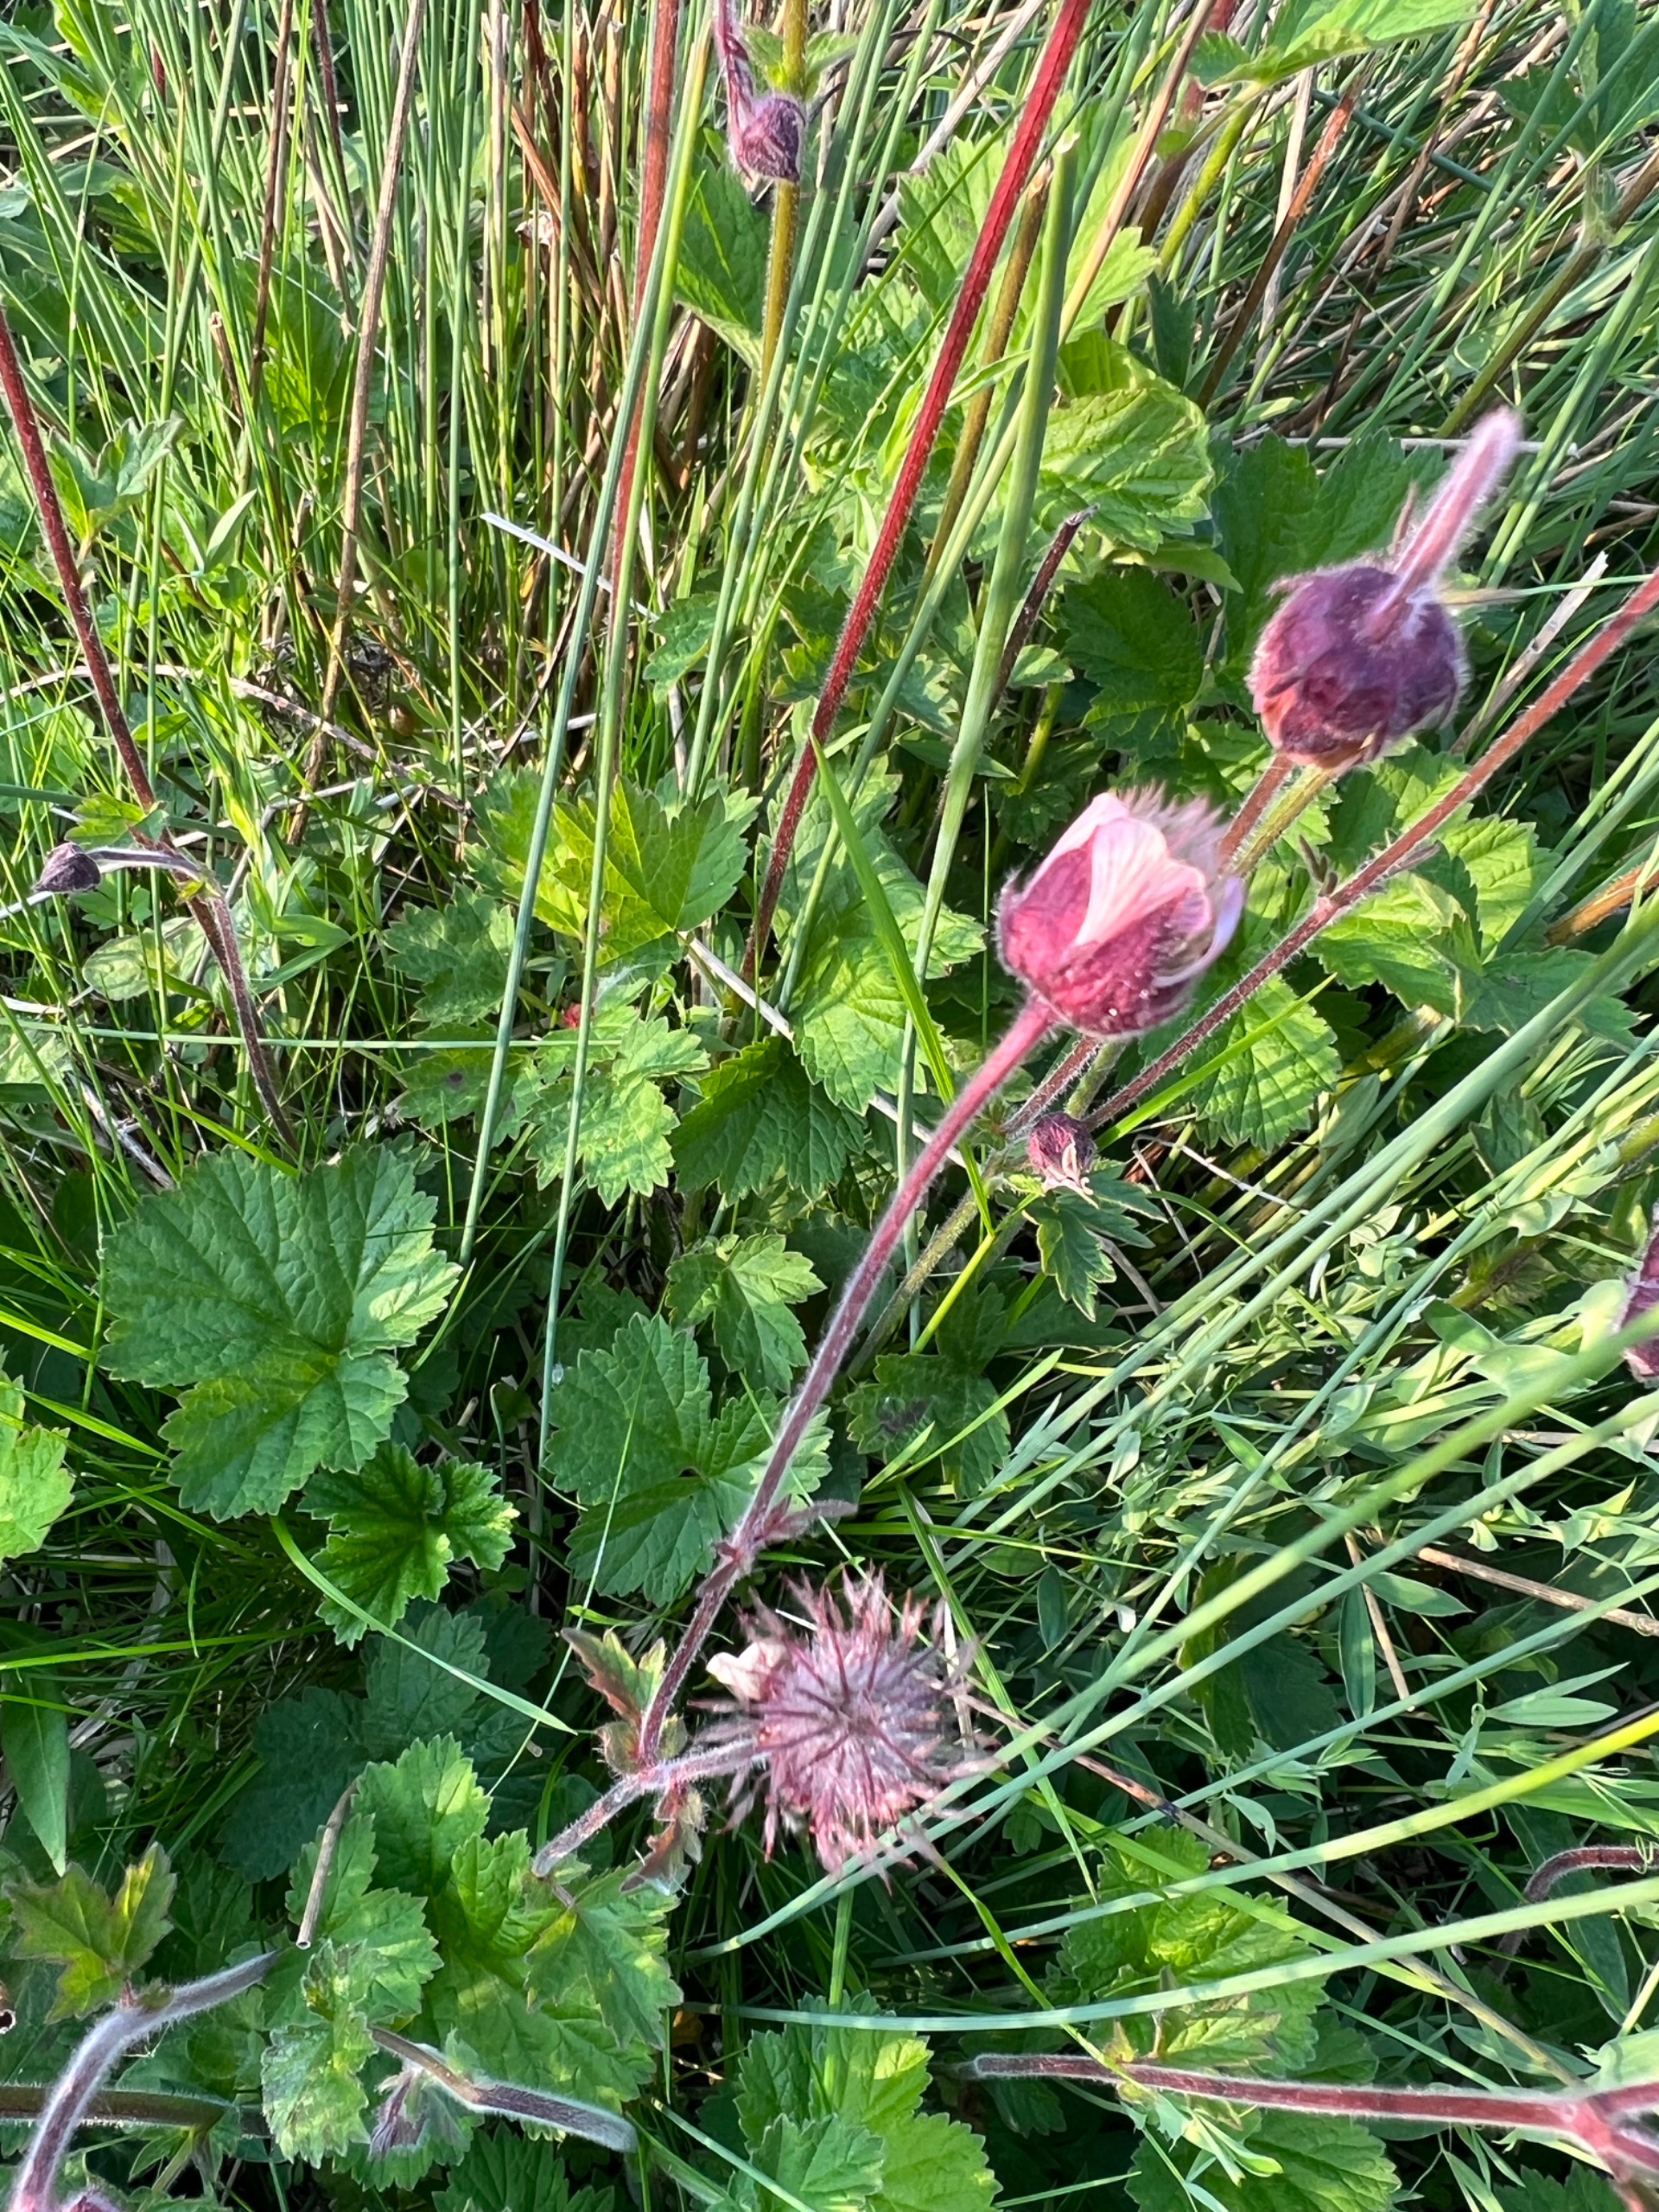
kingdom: Plantae
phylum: Tracheophyta
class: Magnoliopsida
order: Rosales
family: Rosaceae
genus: Geum
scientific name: Geum rivale
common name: Eng-nellikerod
